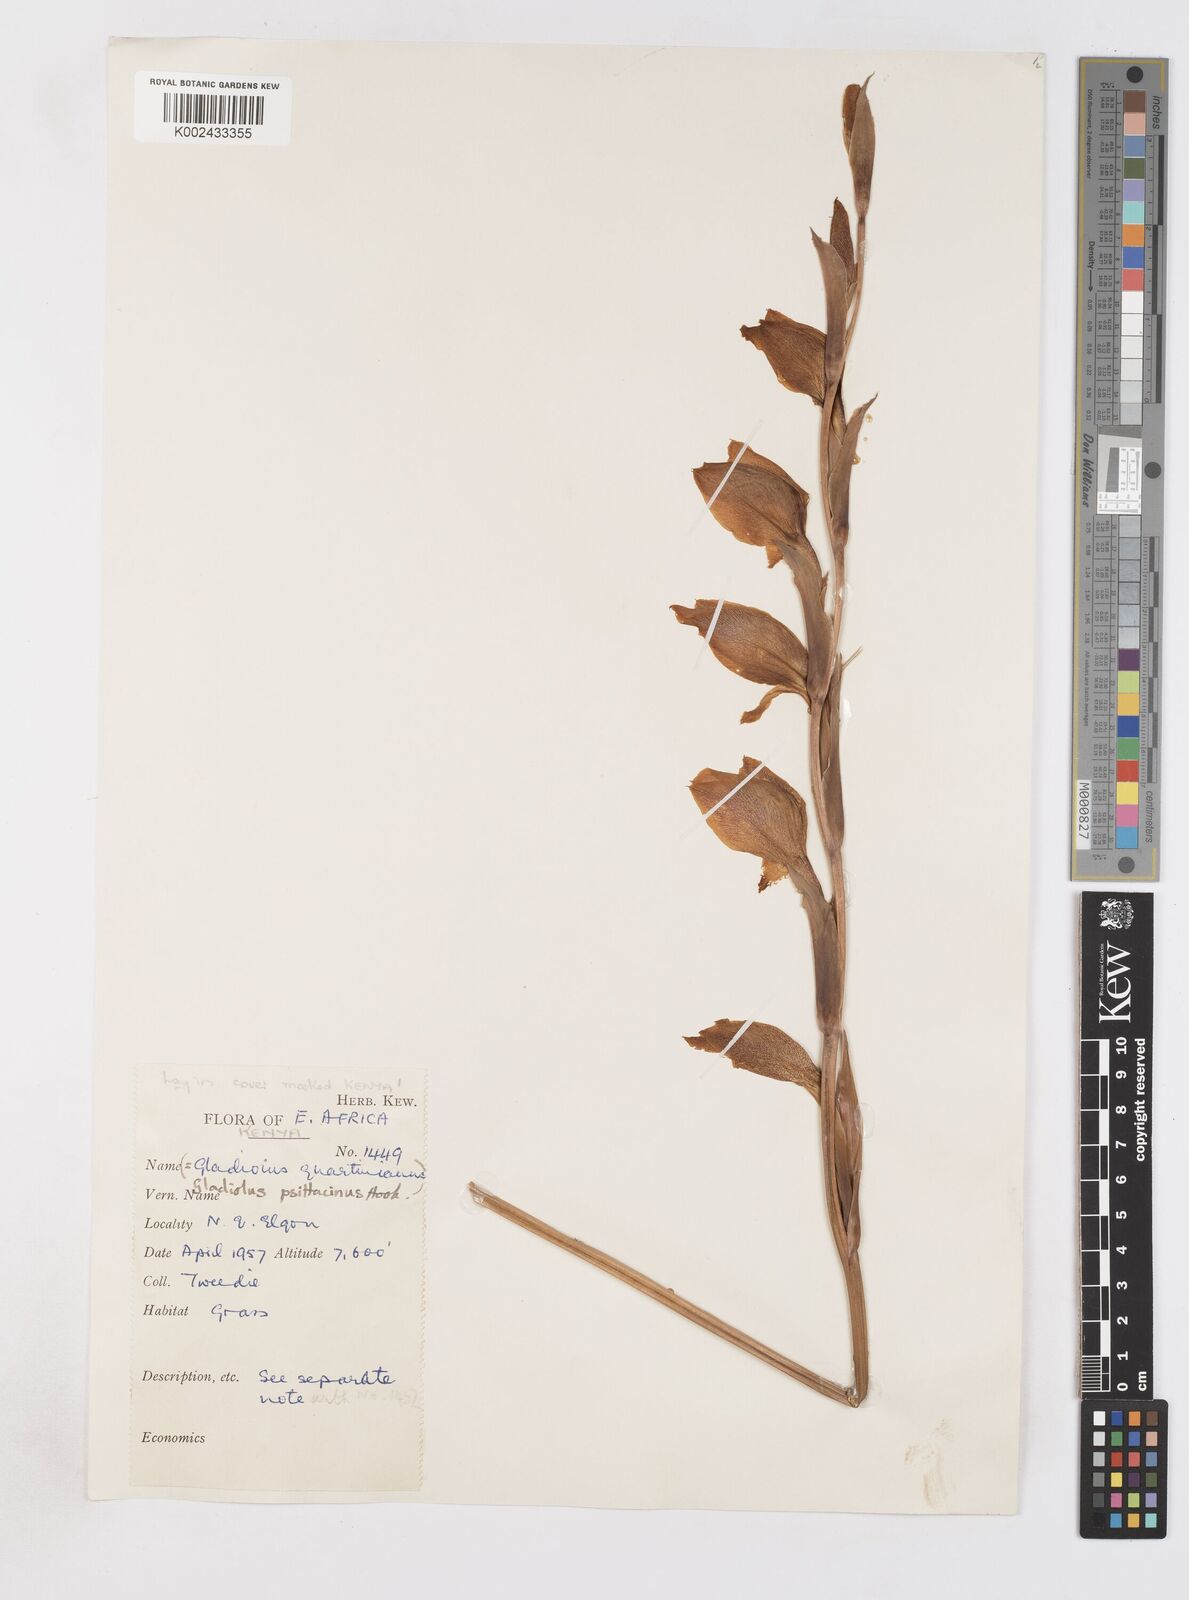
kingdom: Plantae
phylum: Tracheophyta
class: Liliopsida
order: Asparagales
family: Iridaceae
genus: Gladiolus
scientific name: Gladiolus dalenii
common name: Cornflag
